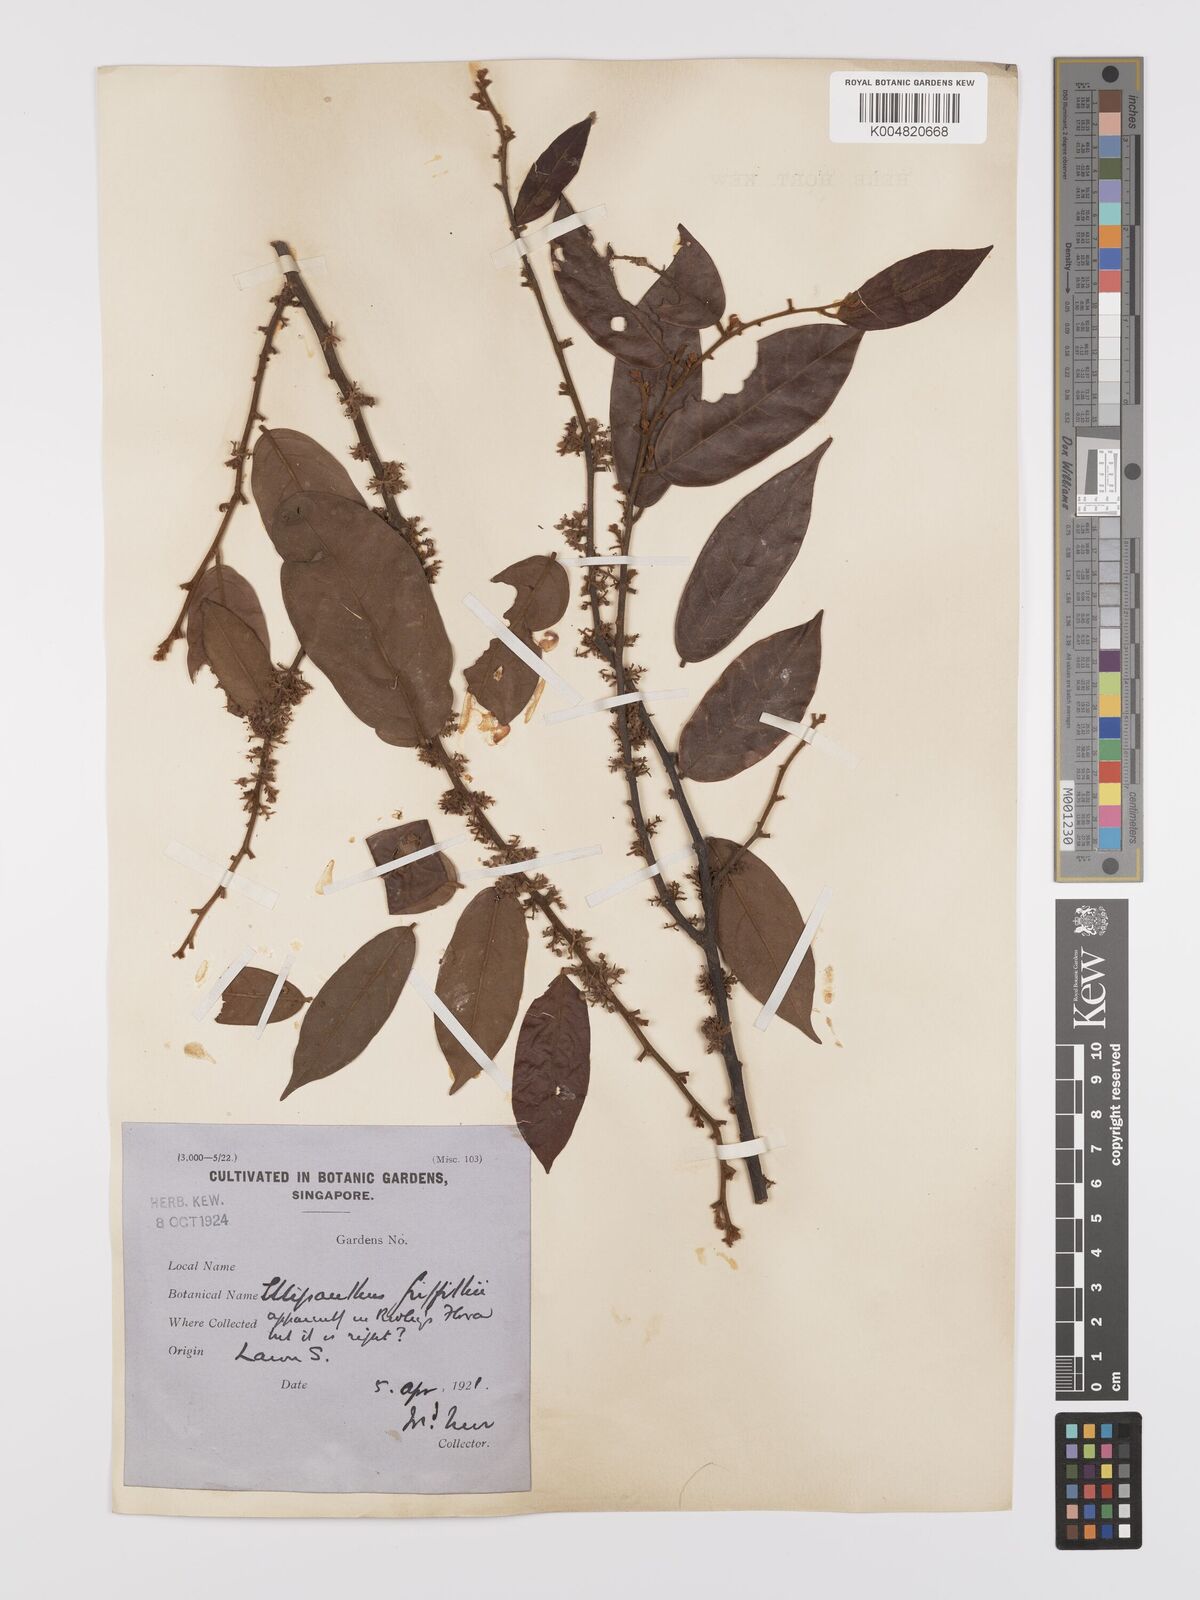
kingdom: Plantae
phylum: Tracheophyta
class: Magnoliopsida
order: Oxalidales
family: Connaraceae
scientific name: Connaraceae
